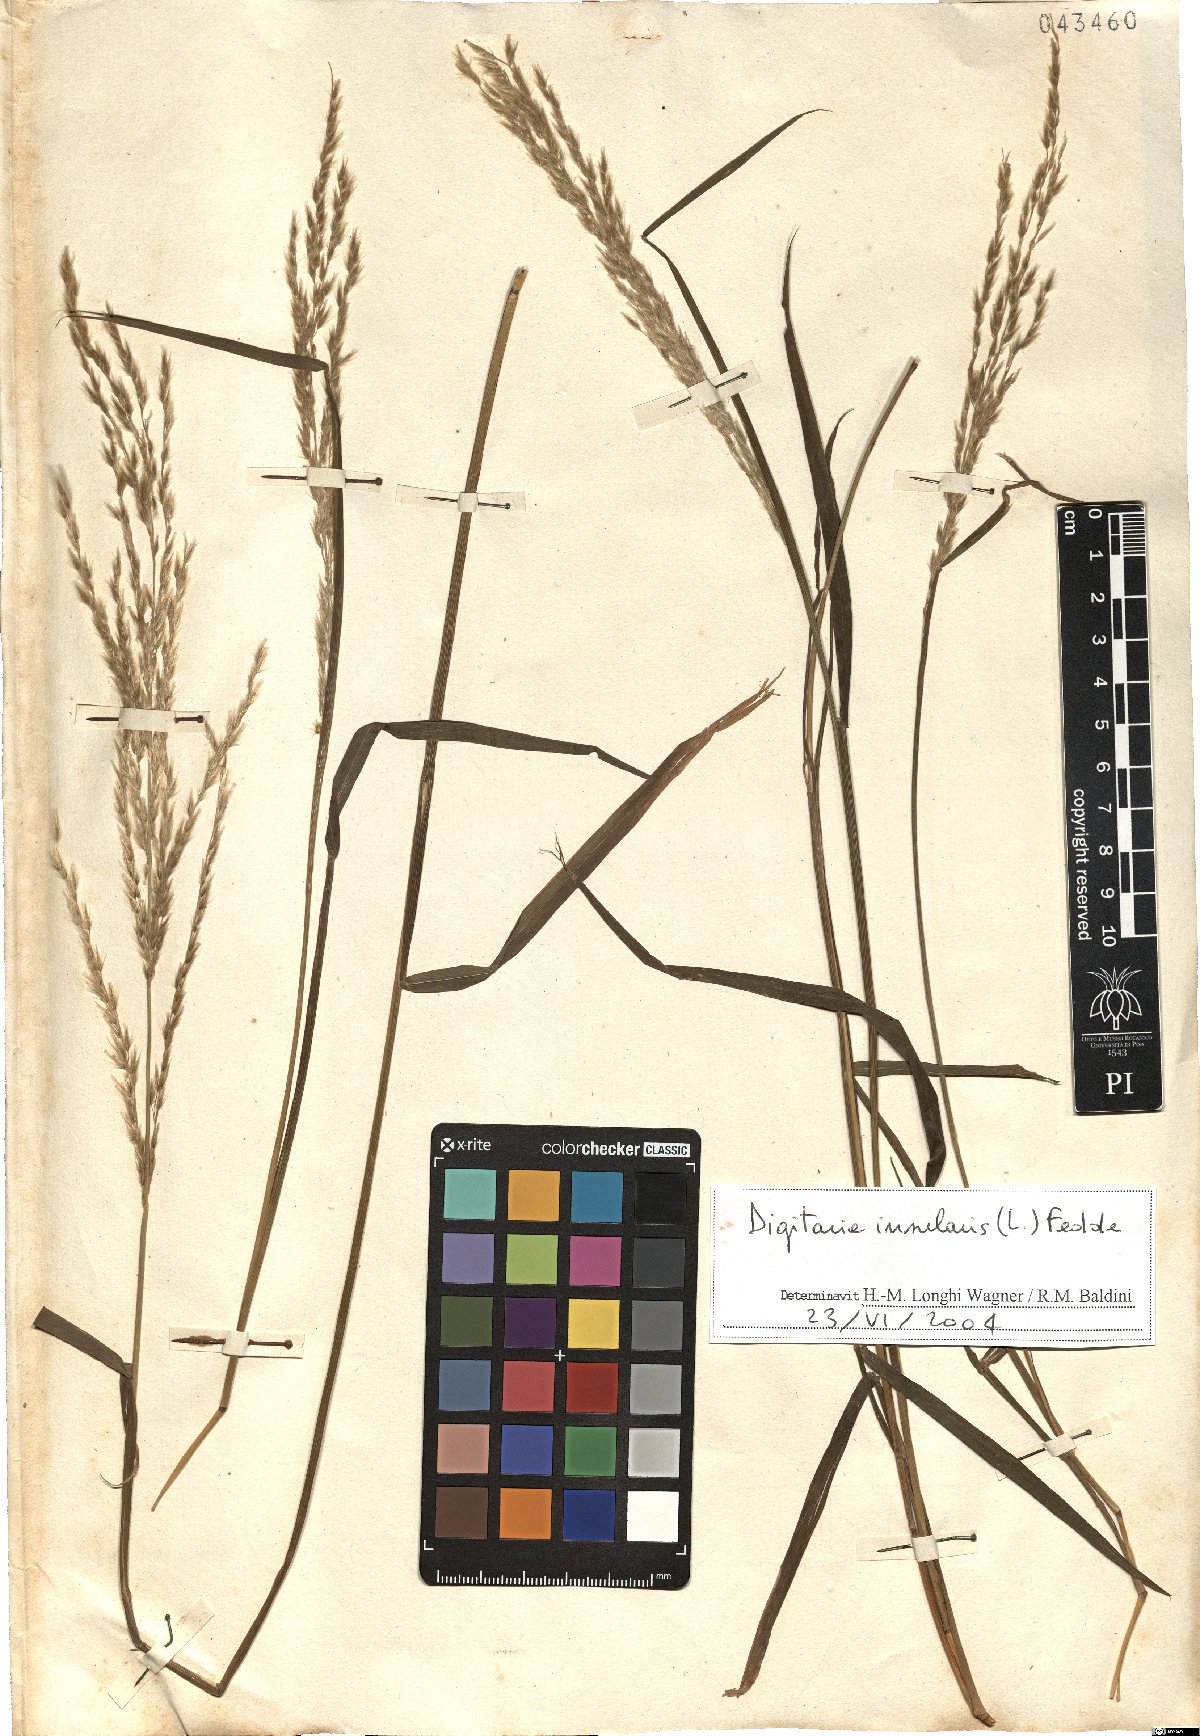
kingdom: Plantae
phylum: Tracheophyta
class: Liliopsida
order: Poales
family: Poaceae
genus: Digitaria
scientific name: Digitaria insularis
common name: Sourgrass
